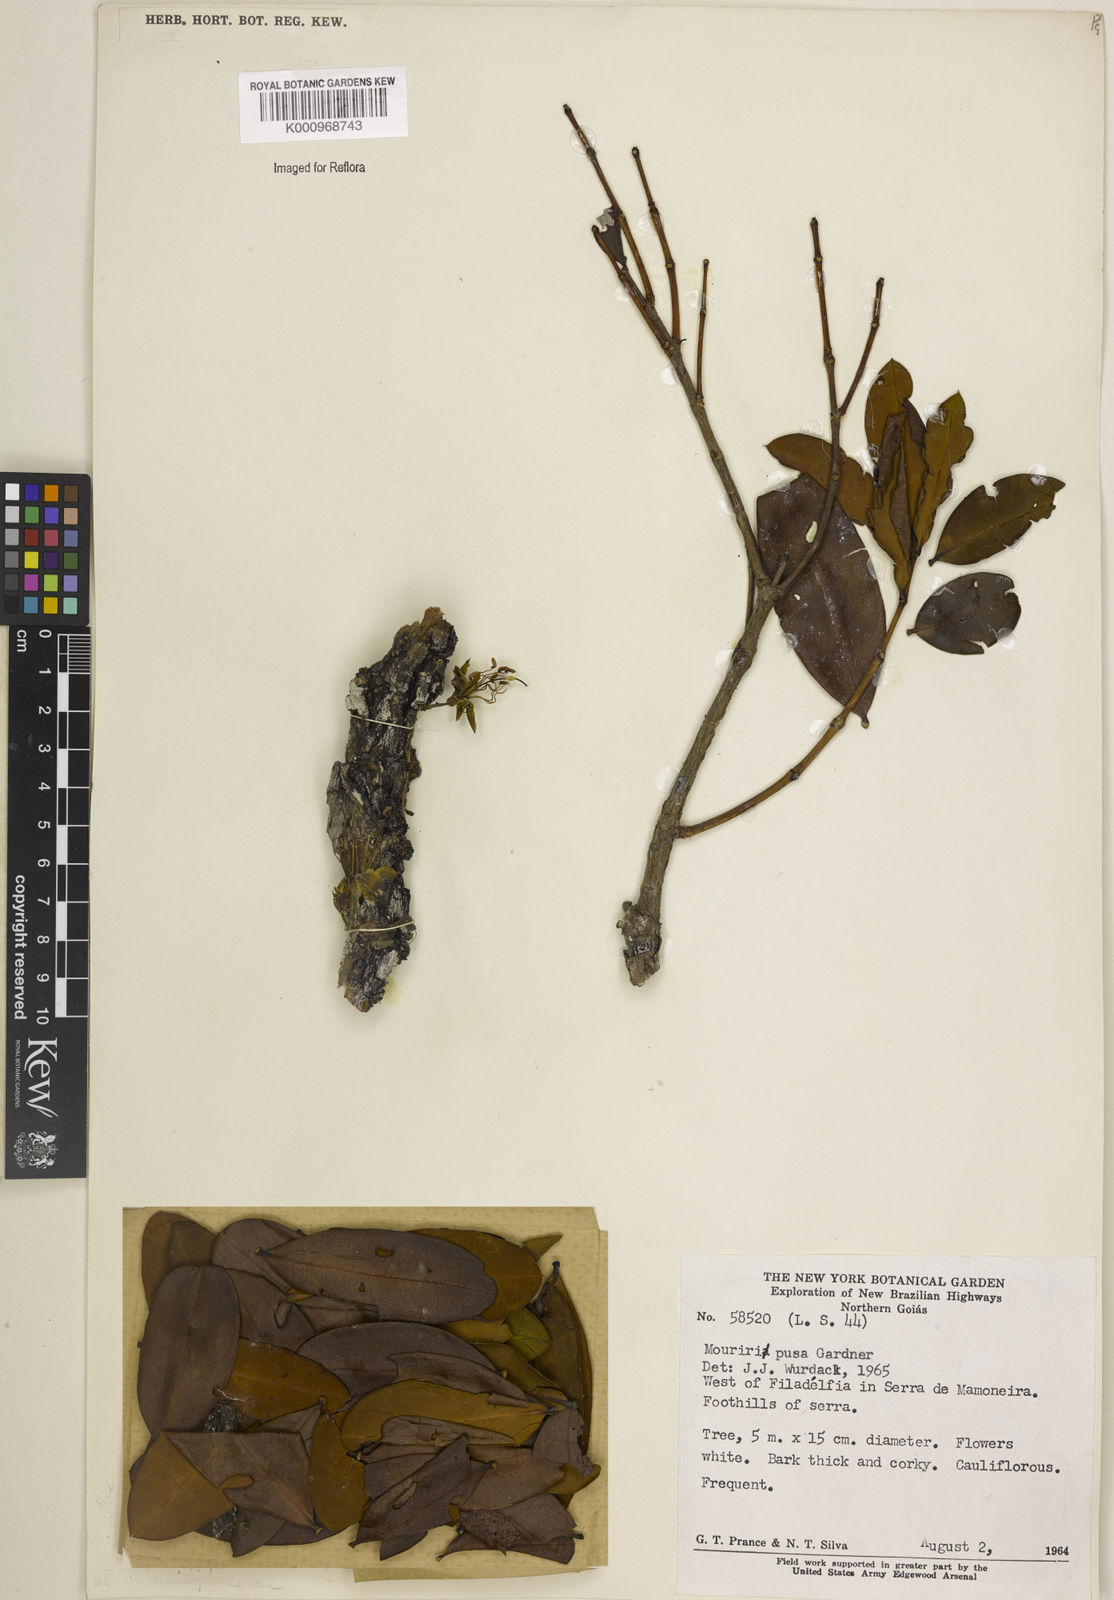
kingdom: Plantae
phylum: Tracheophyta
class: Magnoliopsida
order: Myrtales
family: Melastomataceae
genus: Mouriri
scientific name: Mouriri pusa
